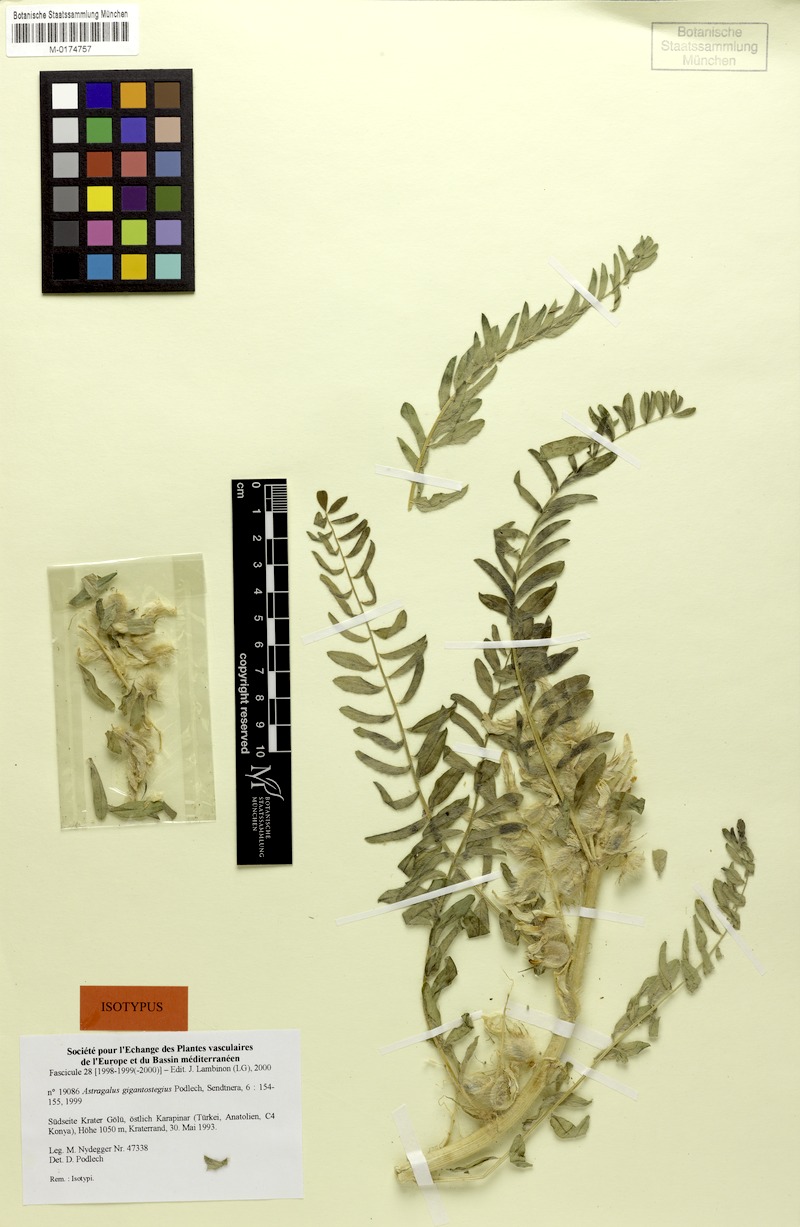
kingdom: Plantae
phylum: Tracheophyta
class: Magnoliopsida
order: Fabales
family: Fabaceae
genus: Astragalus
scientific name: Astragalus gigantostegius
